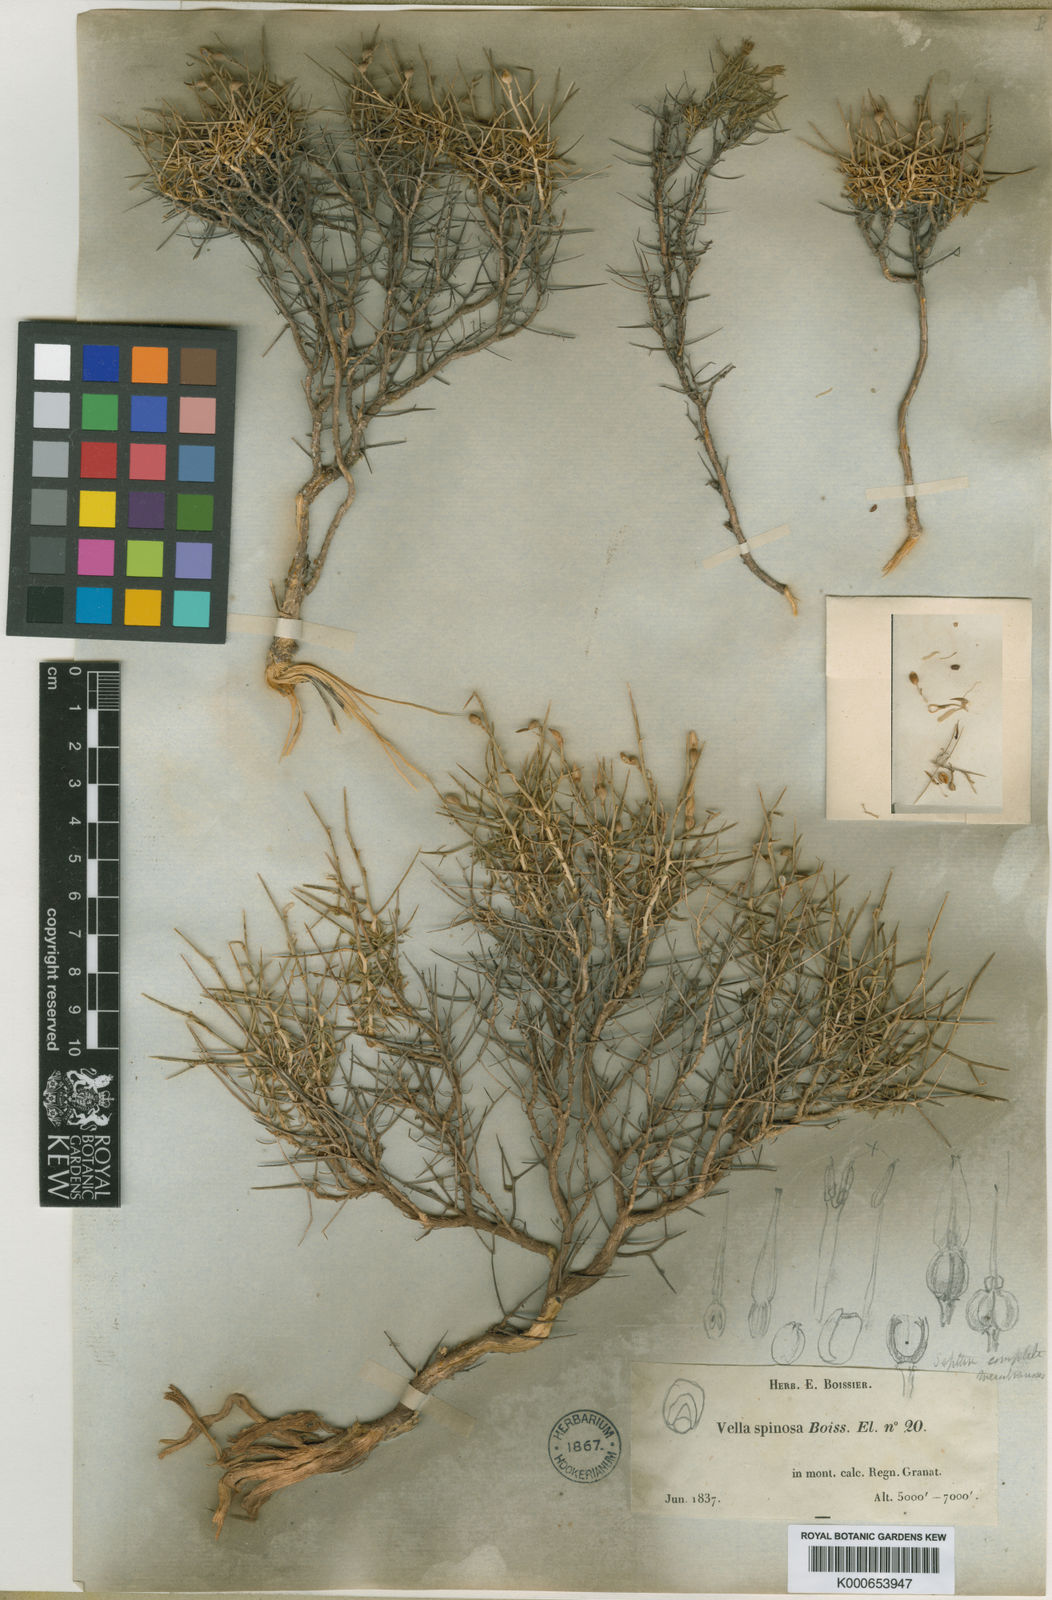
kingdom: Plantae
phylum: Tracheophyta
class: Magnoliopsida
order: Brassicales
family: Brassicaceae
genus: Vella
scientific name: Vella spinosa
